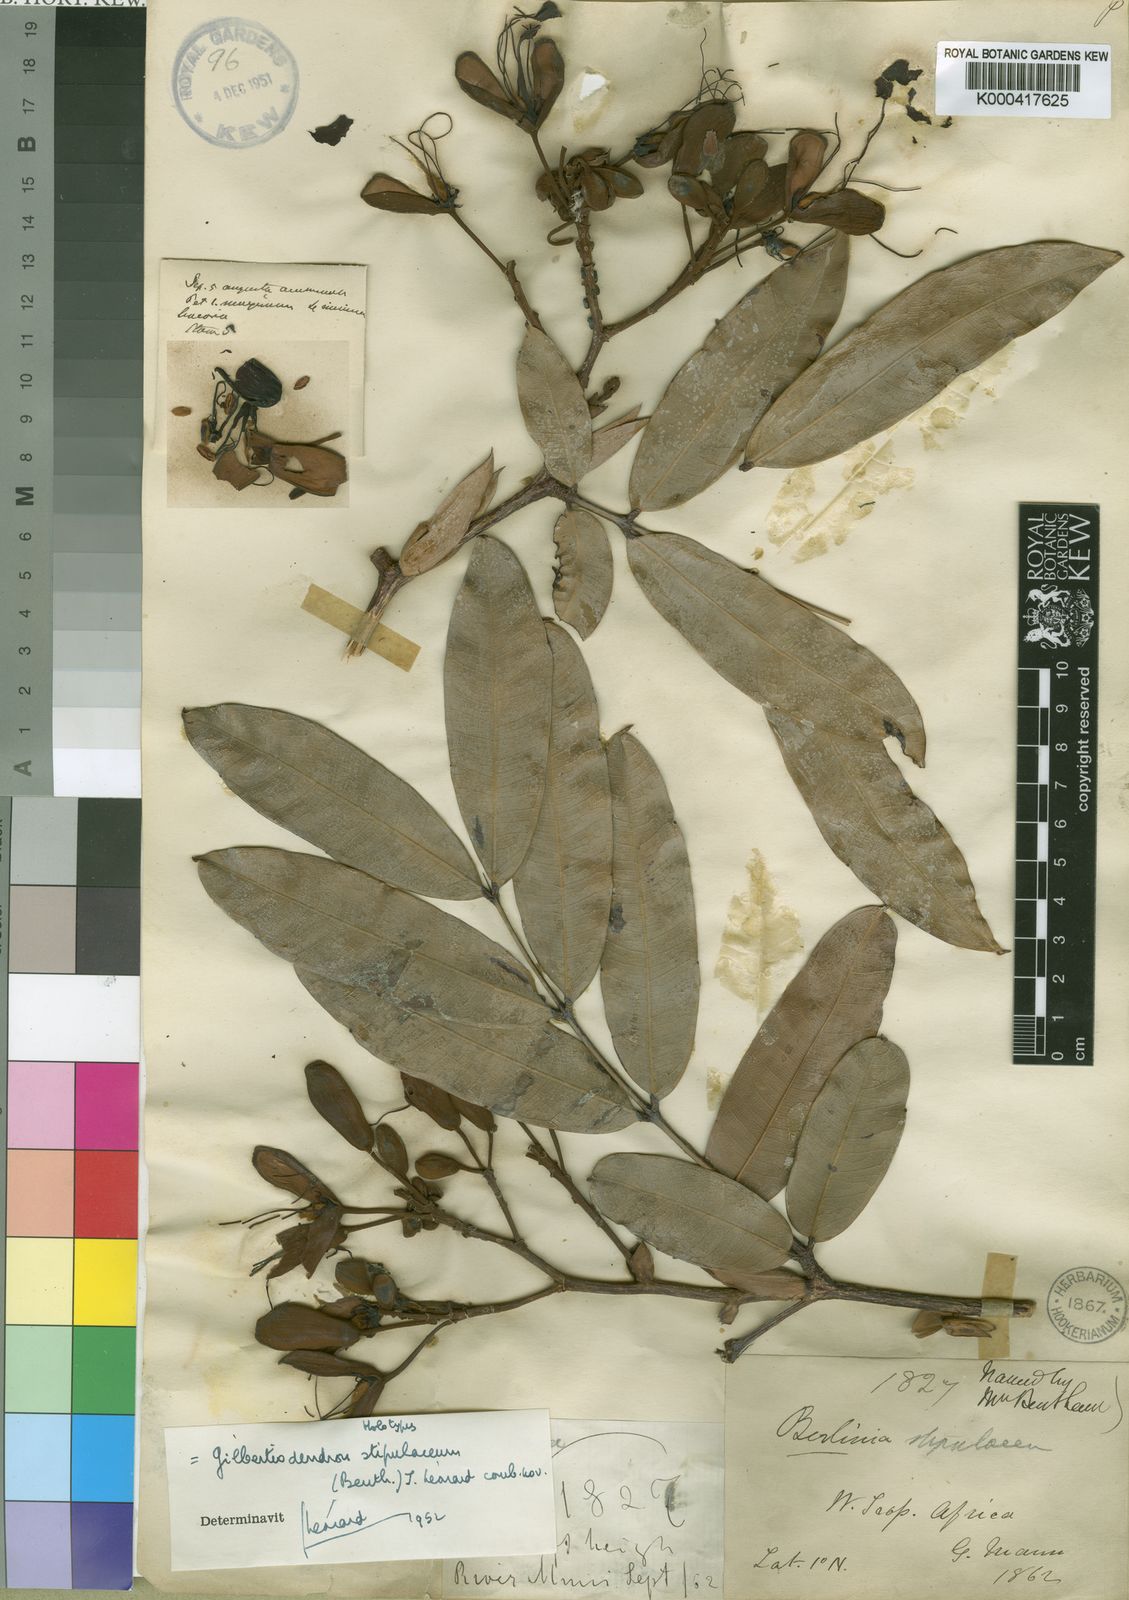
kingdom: Plantae
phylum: Tracheophyta
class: Magnoliopsida
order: Fabales
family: Fabaceae
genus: Gilbertiodendron
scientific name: Gilbertiodendron
